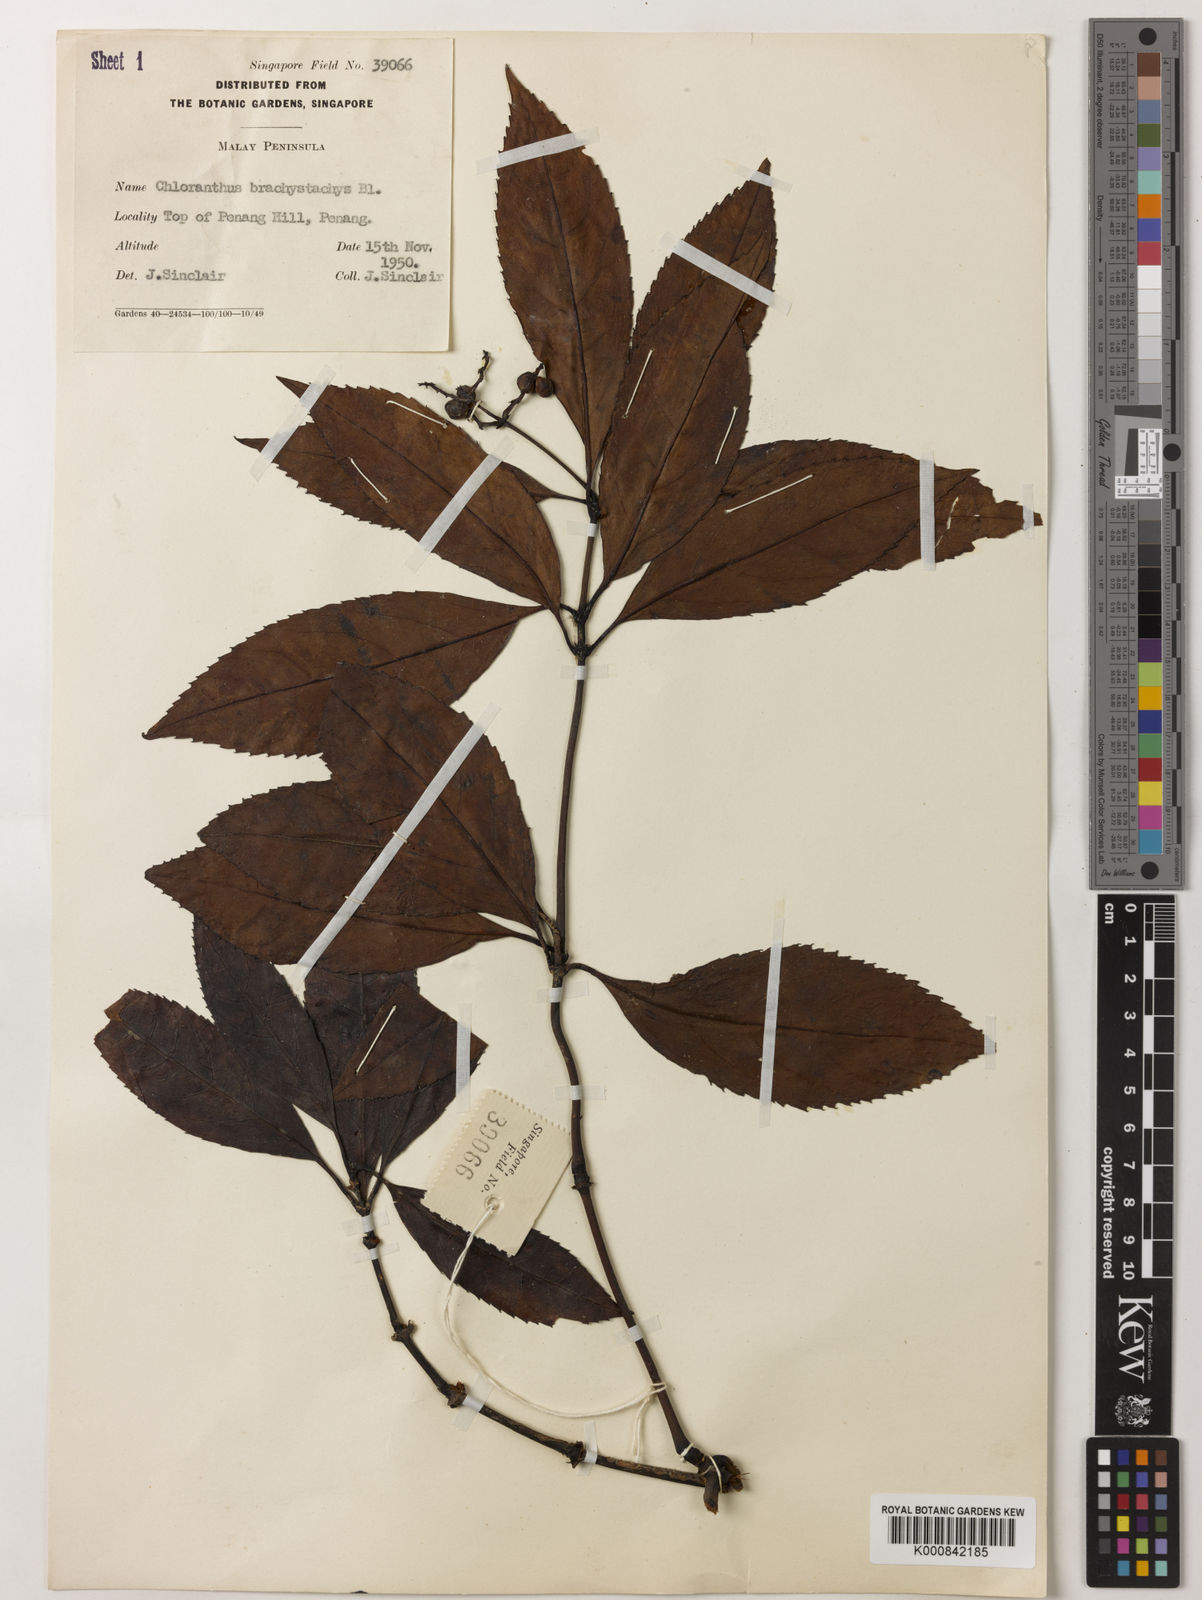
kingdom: Plantae
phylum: Tracheophyta
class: Magnoliopsida
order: Chloranthales
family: Chloranthaceae
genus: Sarcandra
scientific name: Sarcandra glabra
